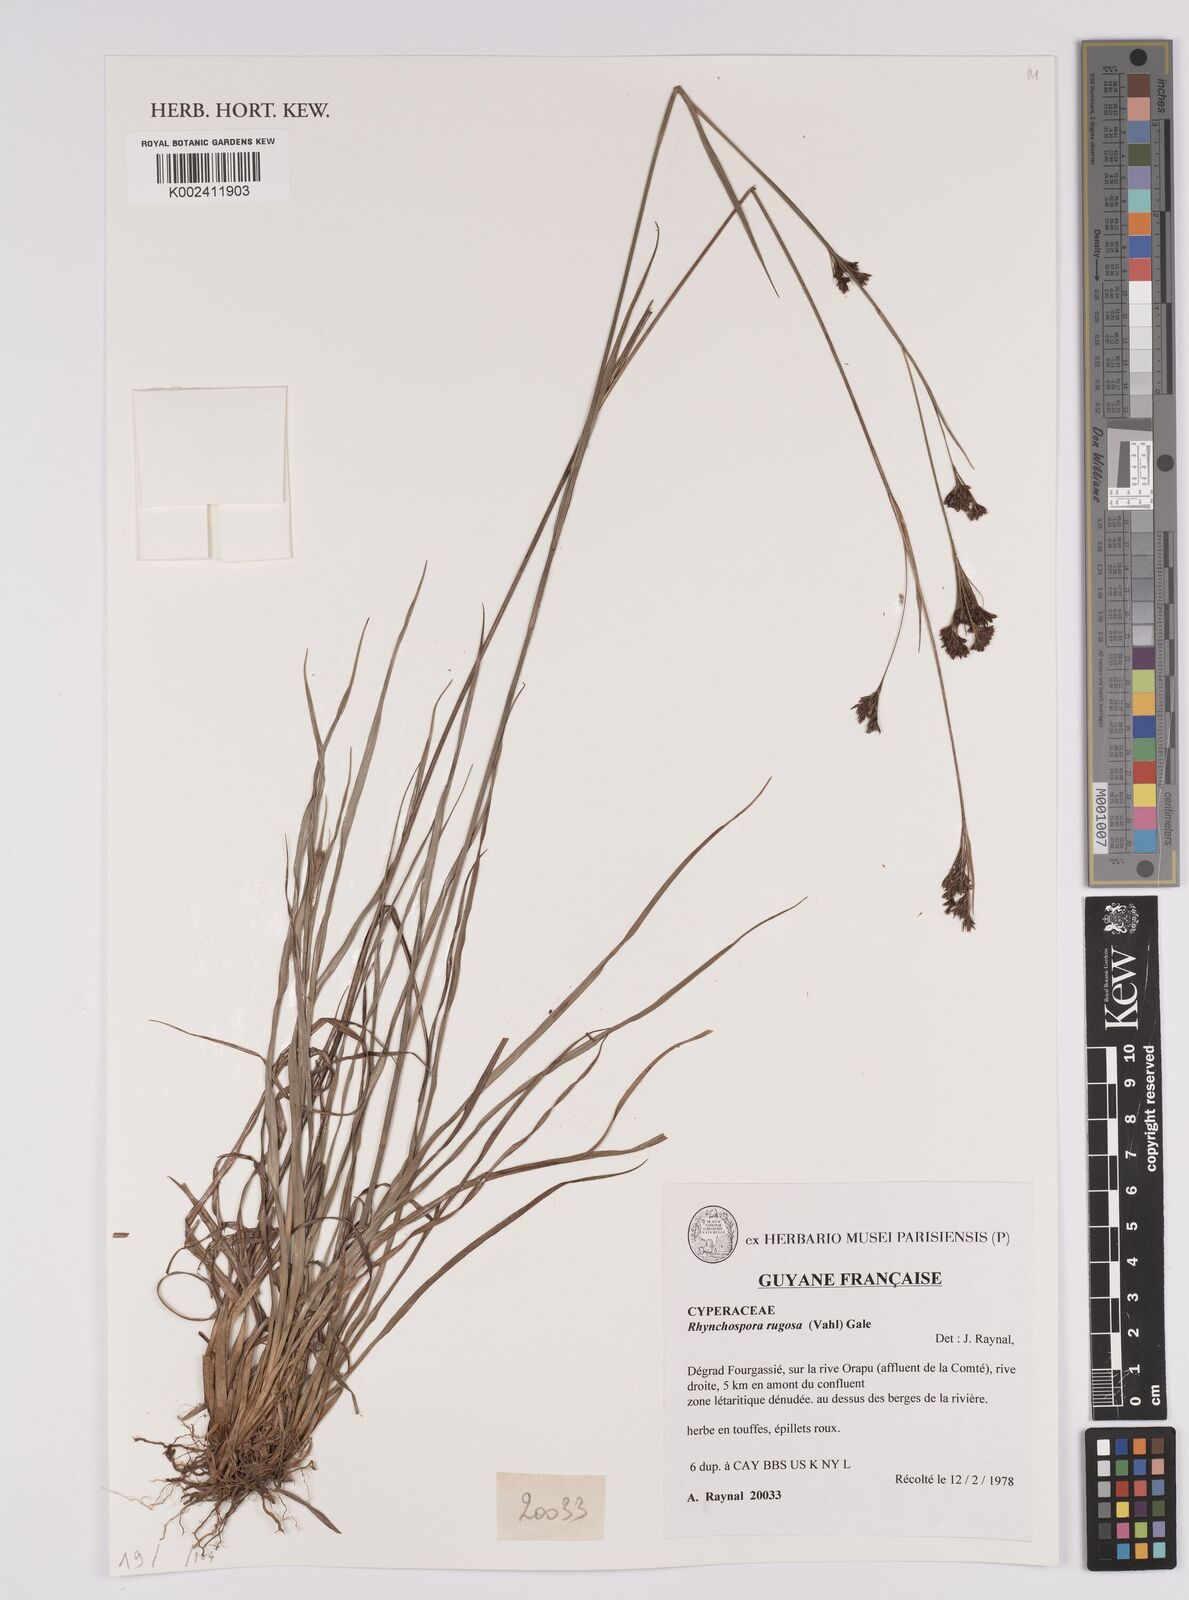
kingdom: Plantae
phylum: Tracheophyta
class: Liliopsida
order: Poales
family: Cyperaceae
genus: Rhynchospora
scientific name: Rhynchospora rugosa
